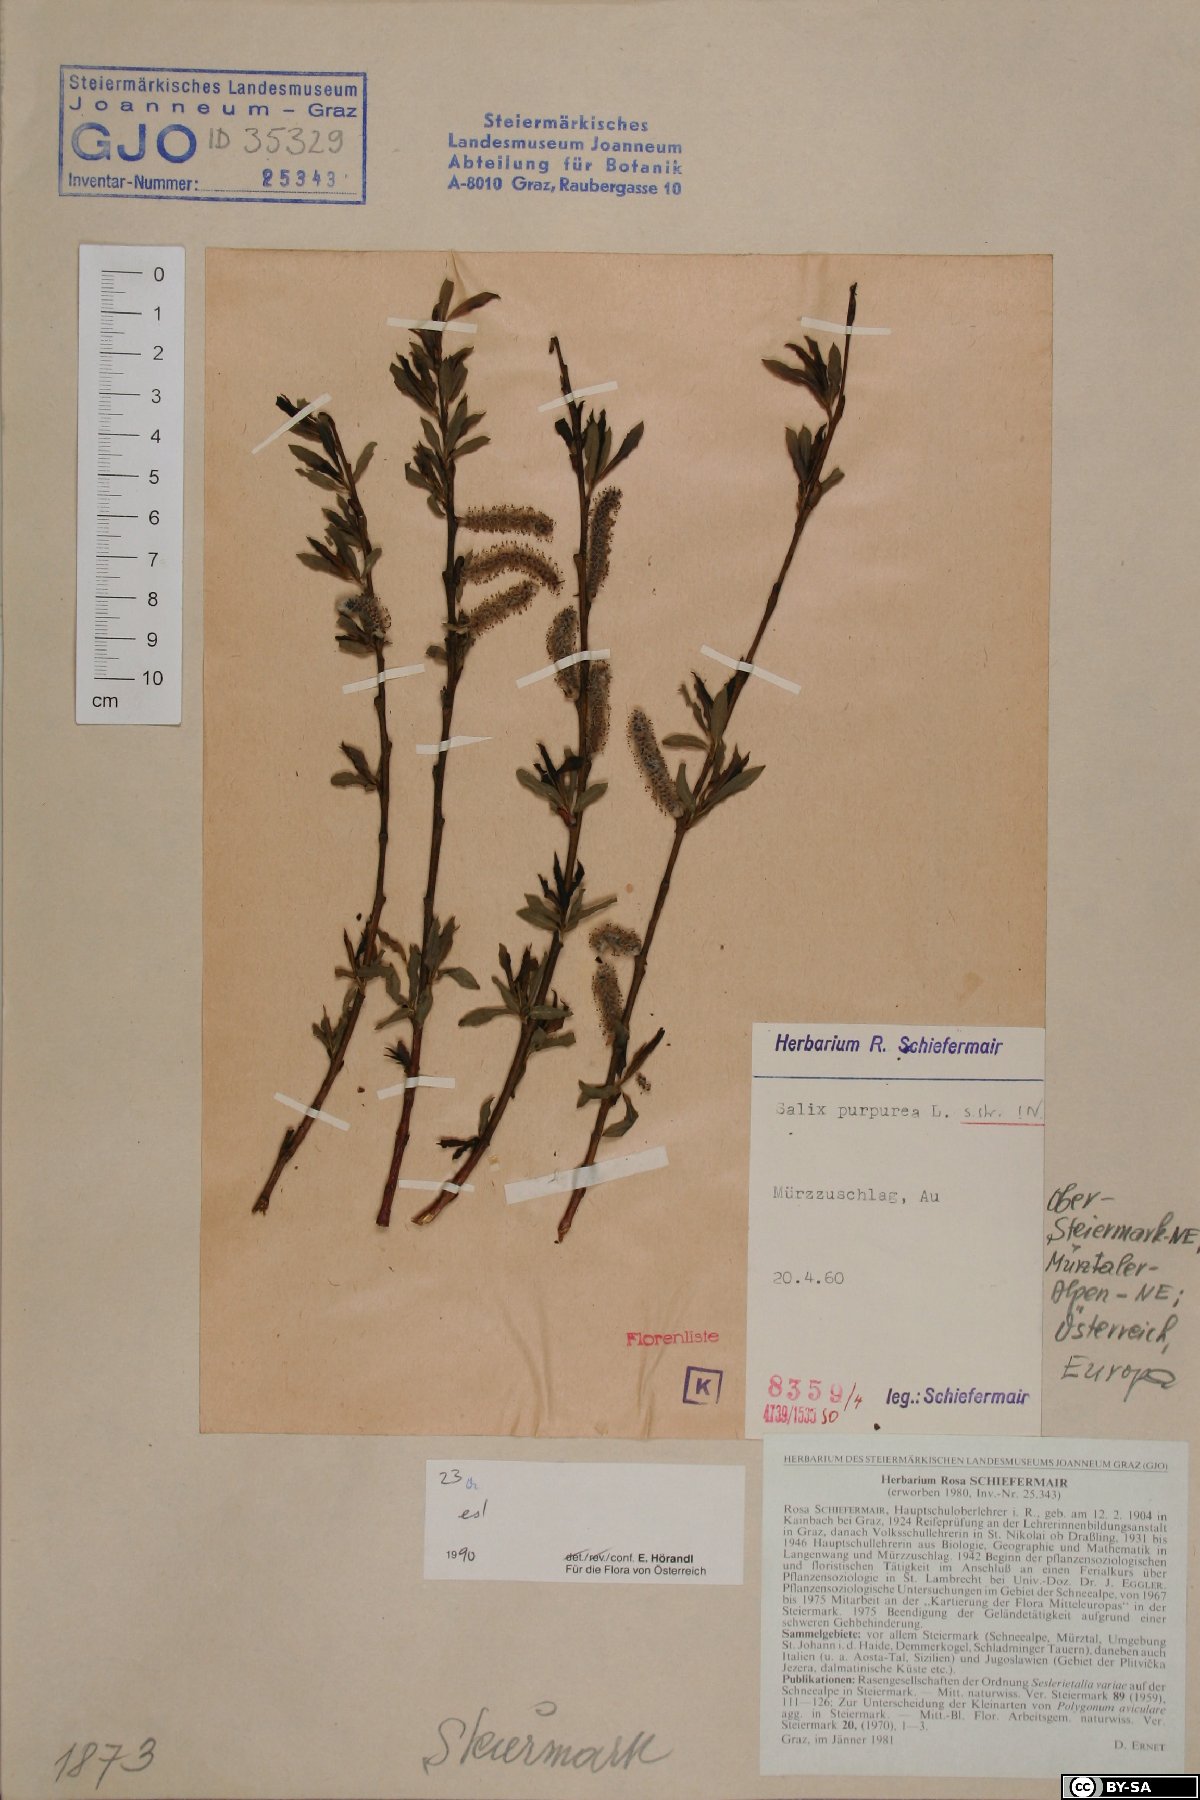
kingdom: Plantae
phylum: Tracheophyta
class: Magnoliopsida
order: Malpighiales
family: Salicaceae
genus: Salix
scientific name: Salix purpurea
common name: Purple willow
